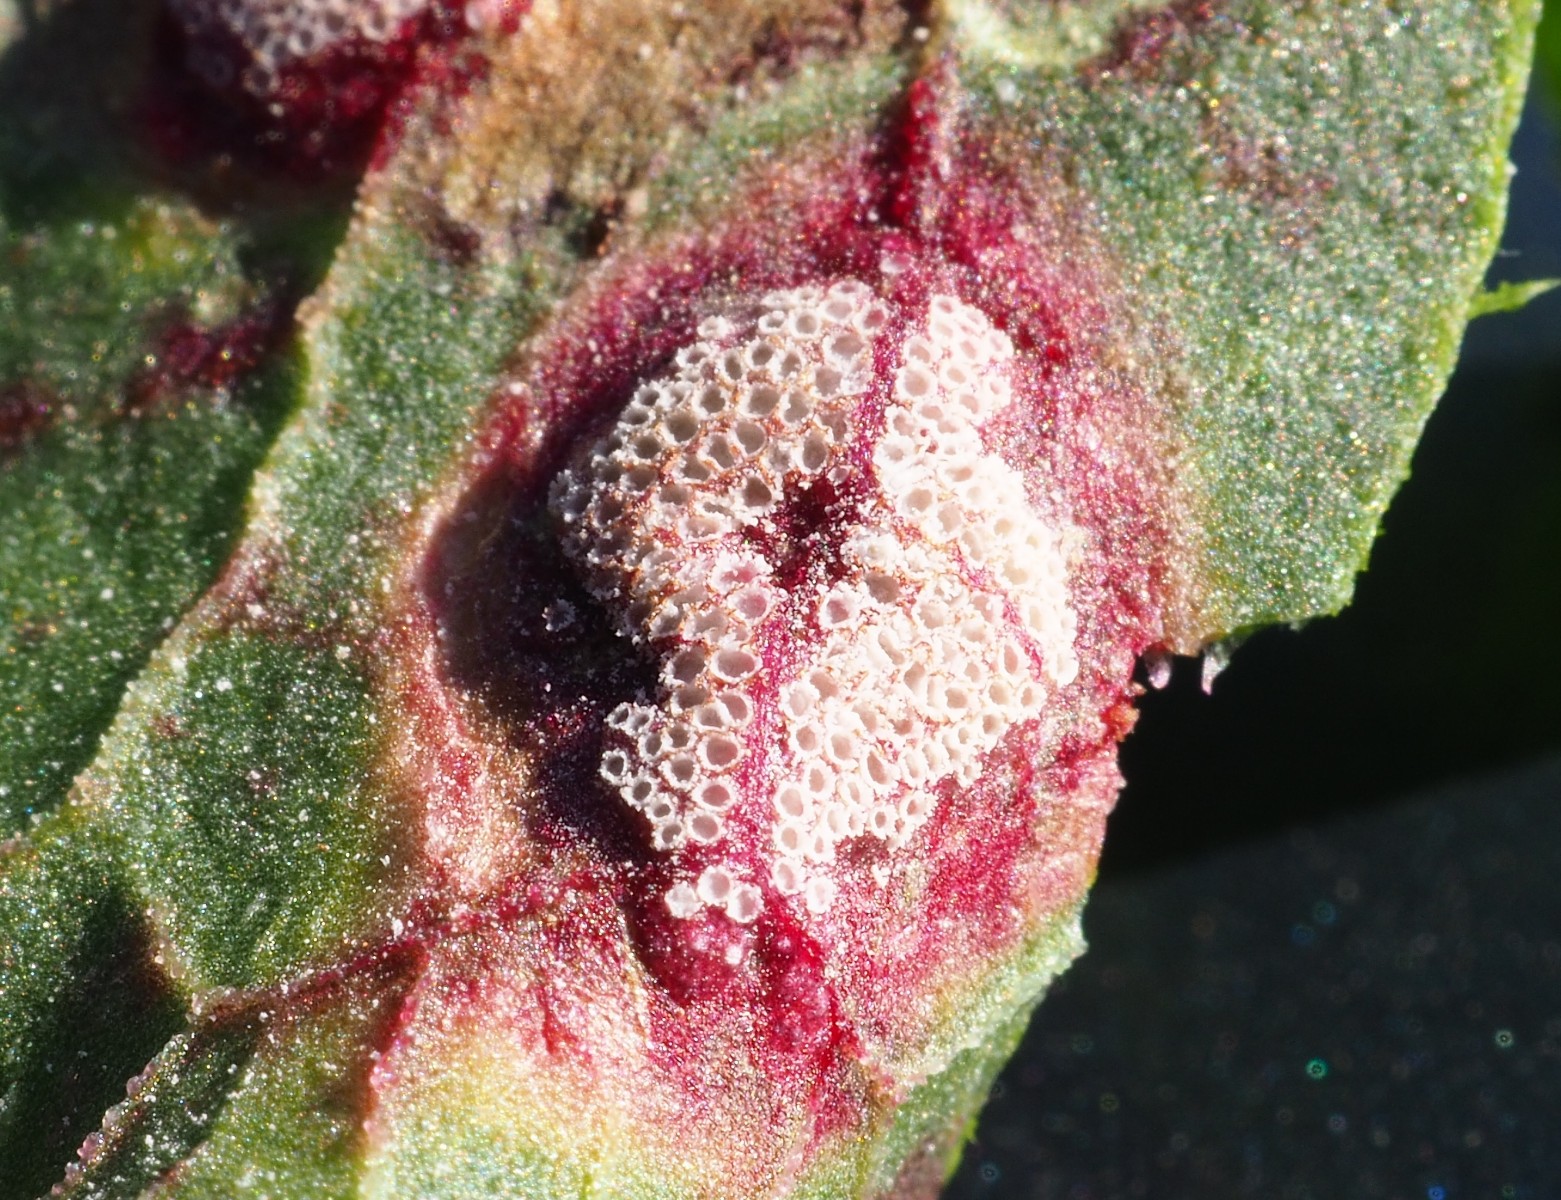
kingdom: Fungi
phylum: Basidiomycota
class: Pucciniomycetes
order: Pucciniales
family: Pucciniaceae
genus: Puccinia
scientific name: Puccinia phragmitis
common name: tagrør-tvecellerust
